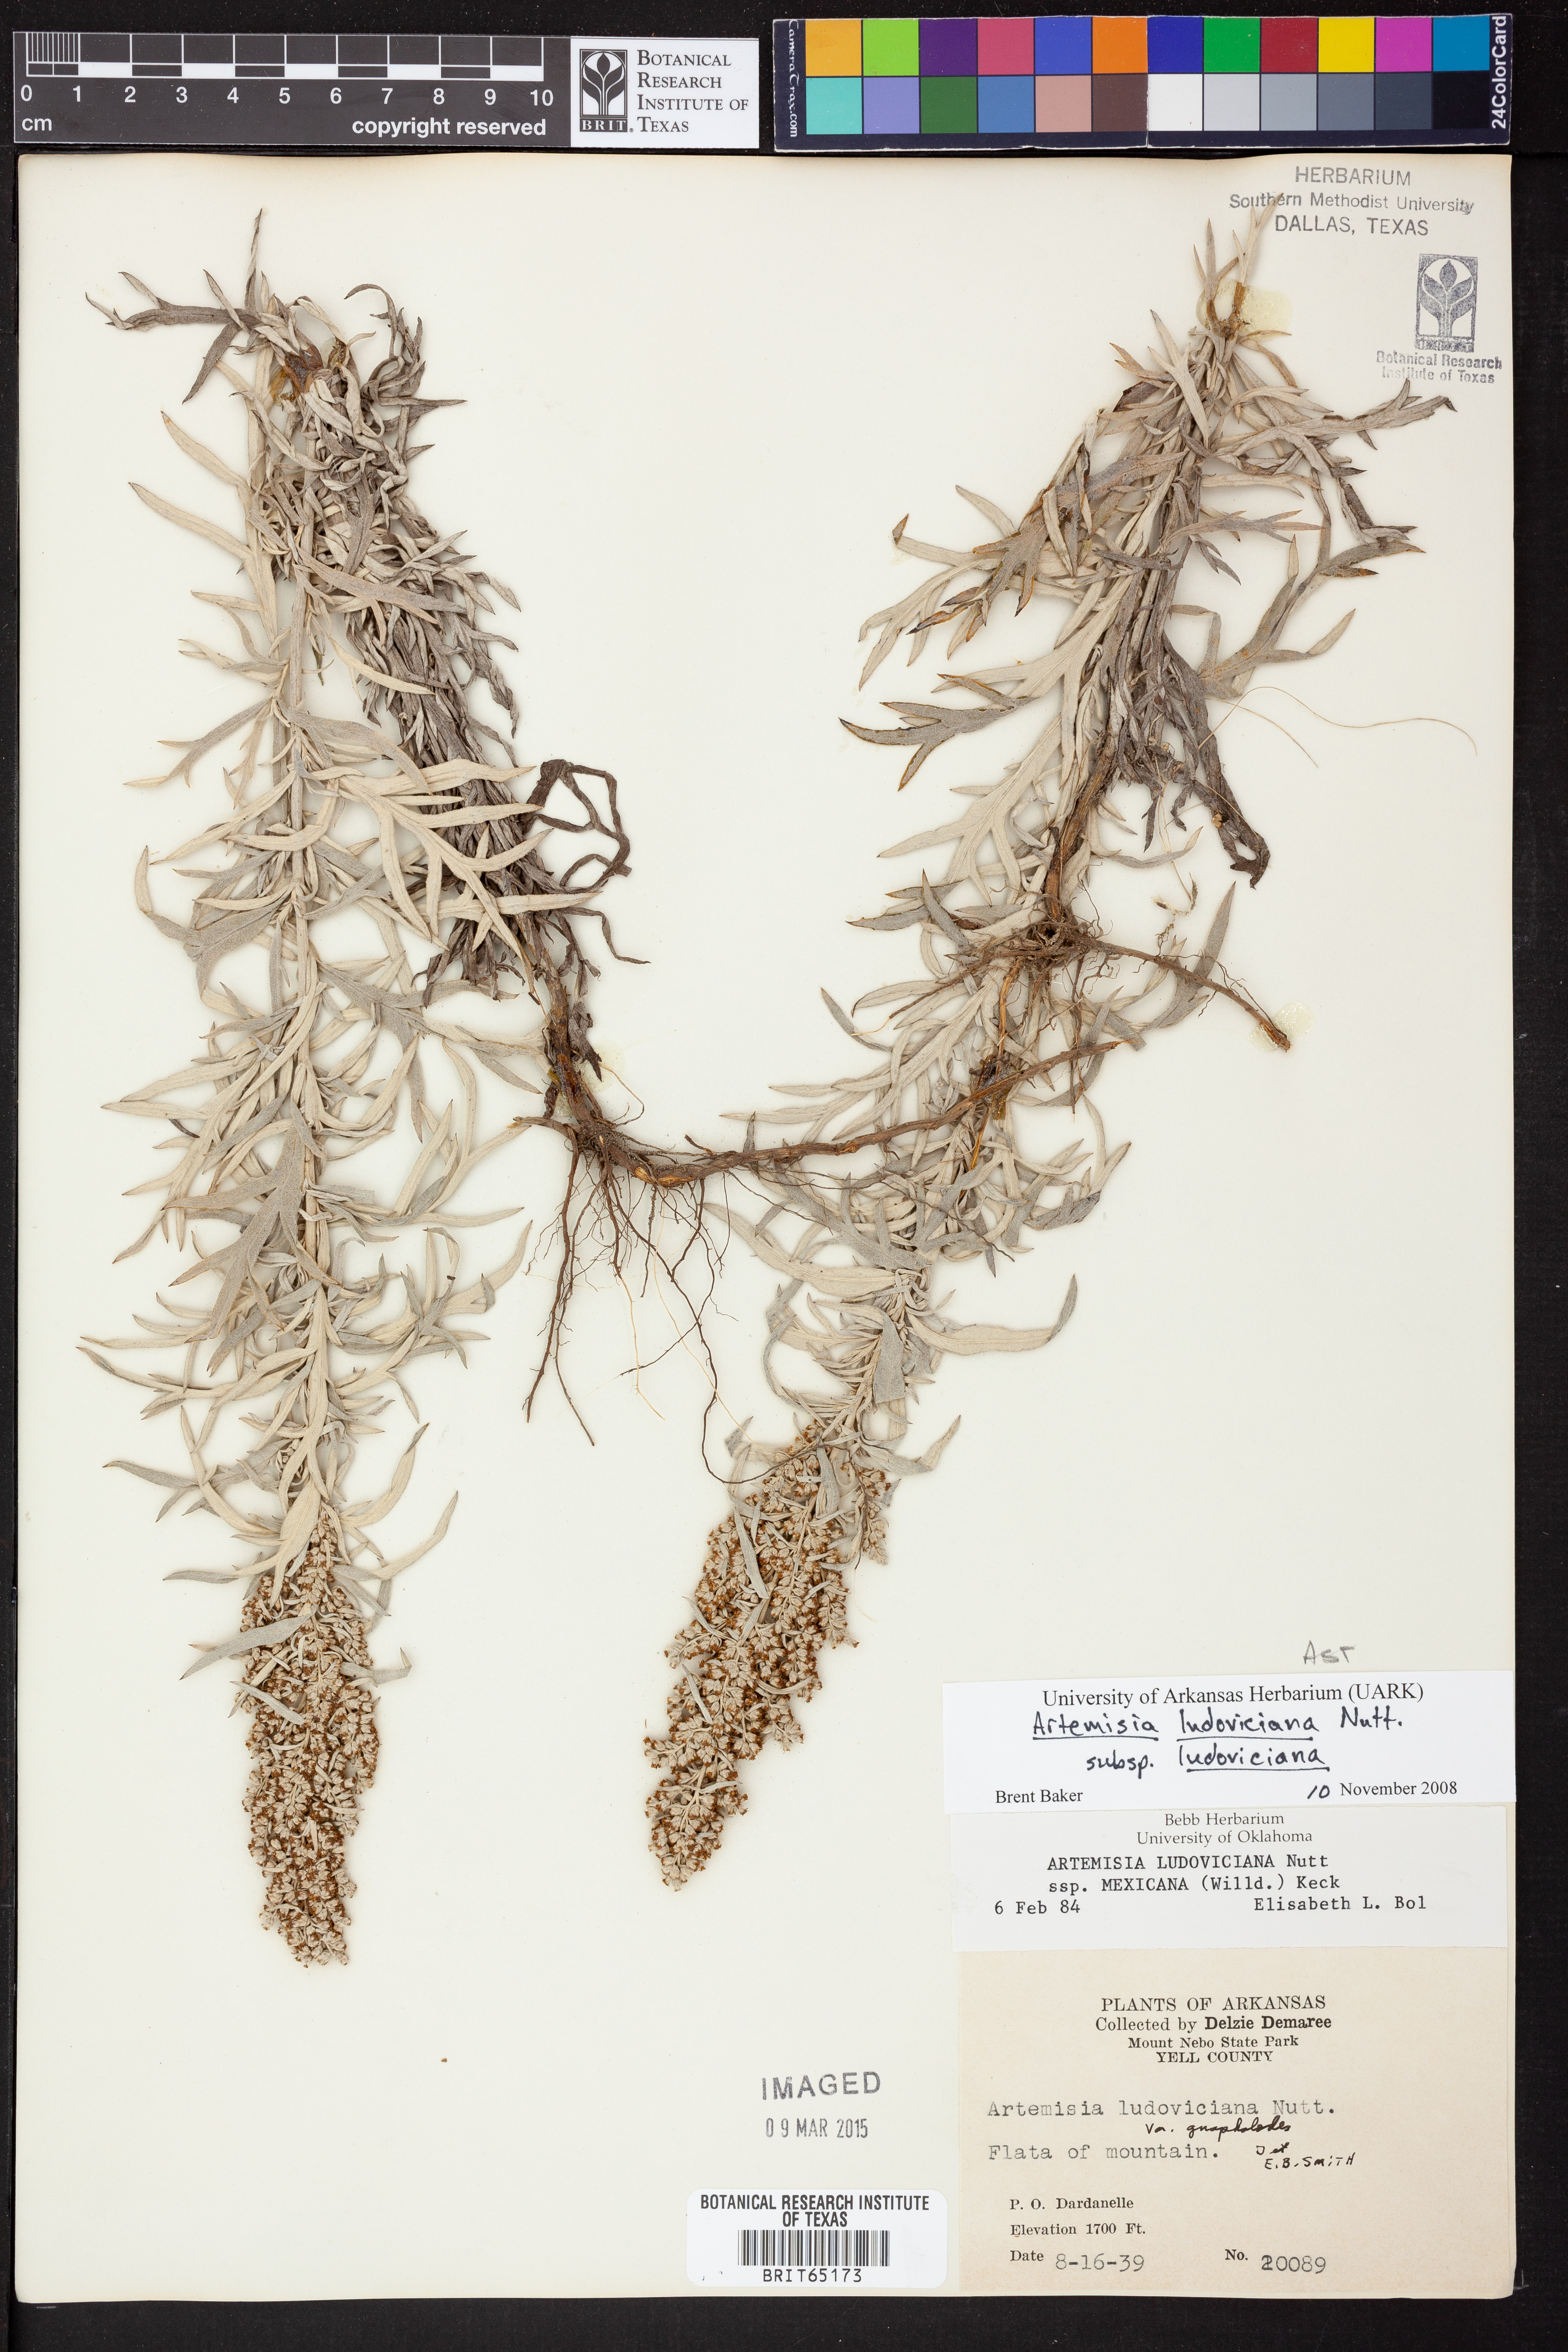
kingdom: Plantae
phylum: Tracheophyta
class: Magnoliopsida
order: Asterales
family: Asteraceae
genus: Artemisia
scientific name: Artemisia ludoviciana
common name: Western mugwort
